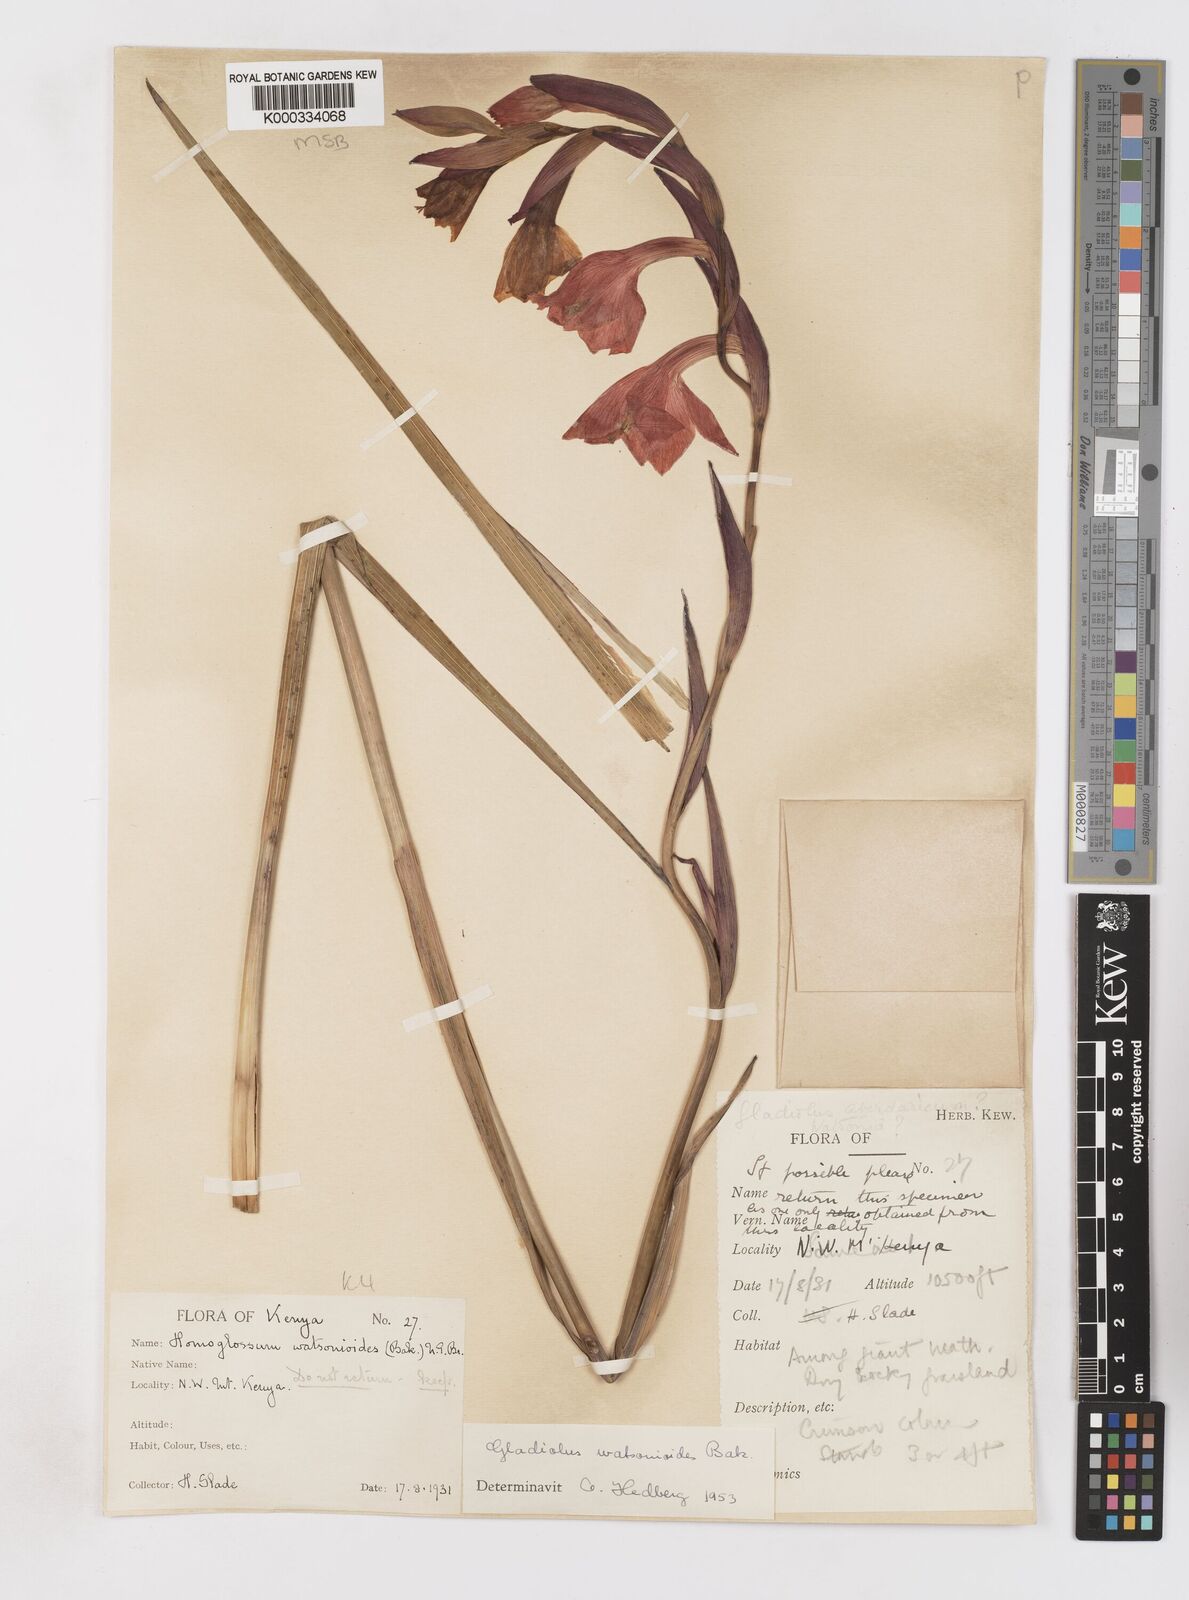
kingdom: Plantae
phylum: Tracheophyta
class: Liliopsida
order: Asparagales
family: Iridaceae
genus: Gladiolus
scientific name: Gladiolus watsonioides
